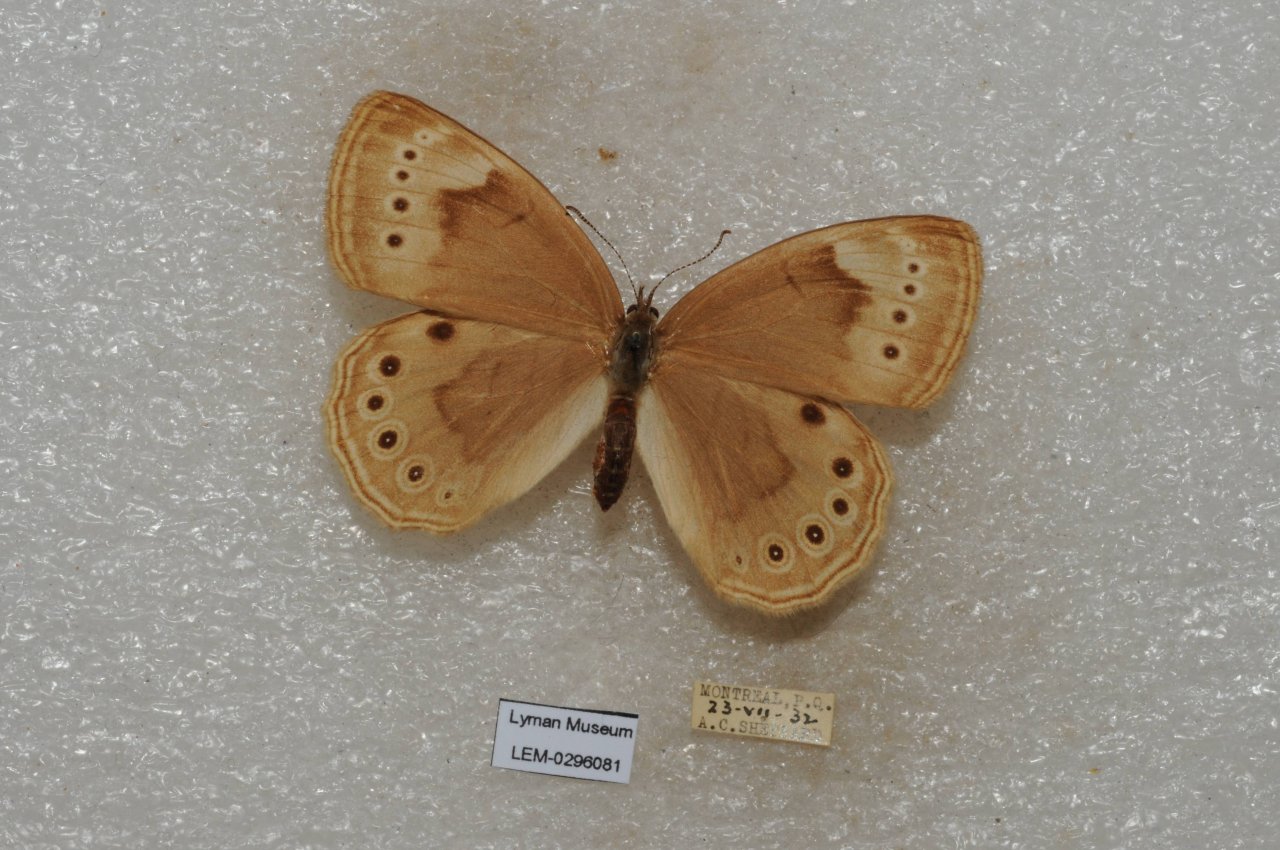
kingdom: Animalia
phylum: Arthropoda
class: Insecta
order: Lepidoptera
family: Nymphalidae
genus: Lethe
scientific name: Lethe eurydice
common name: Eyed Brown
